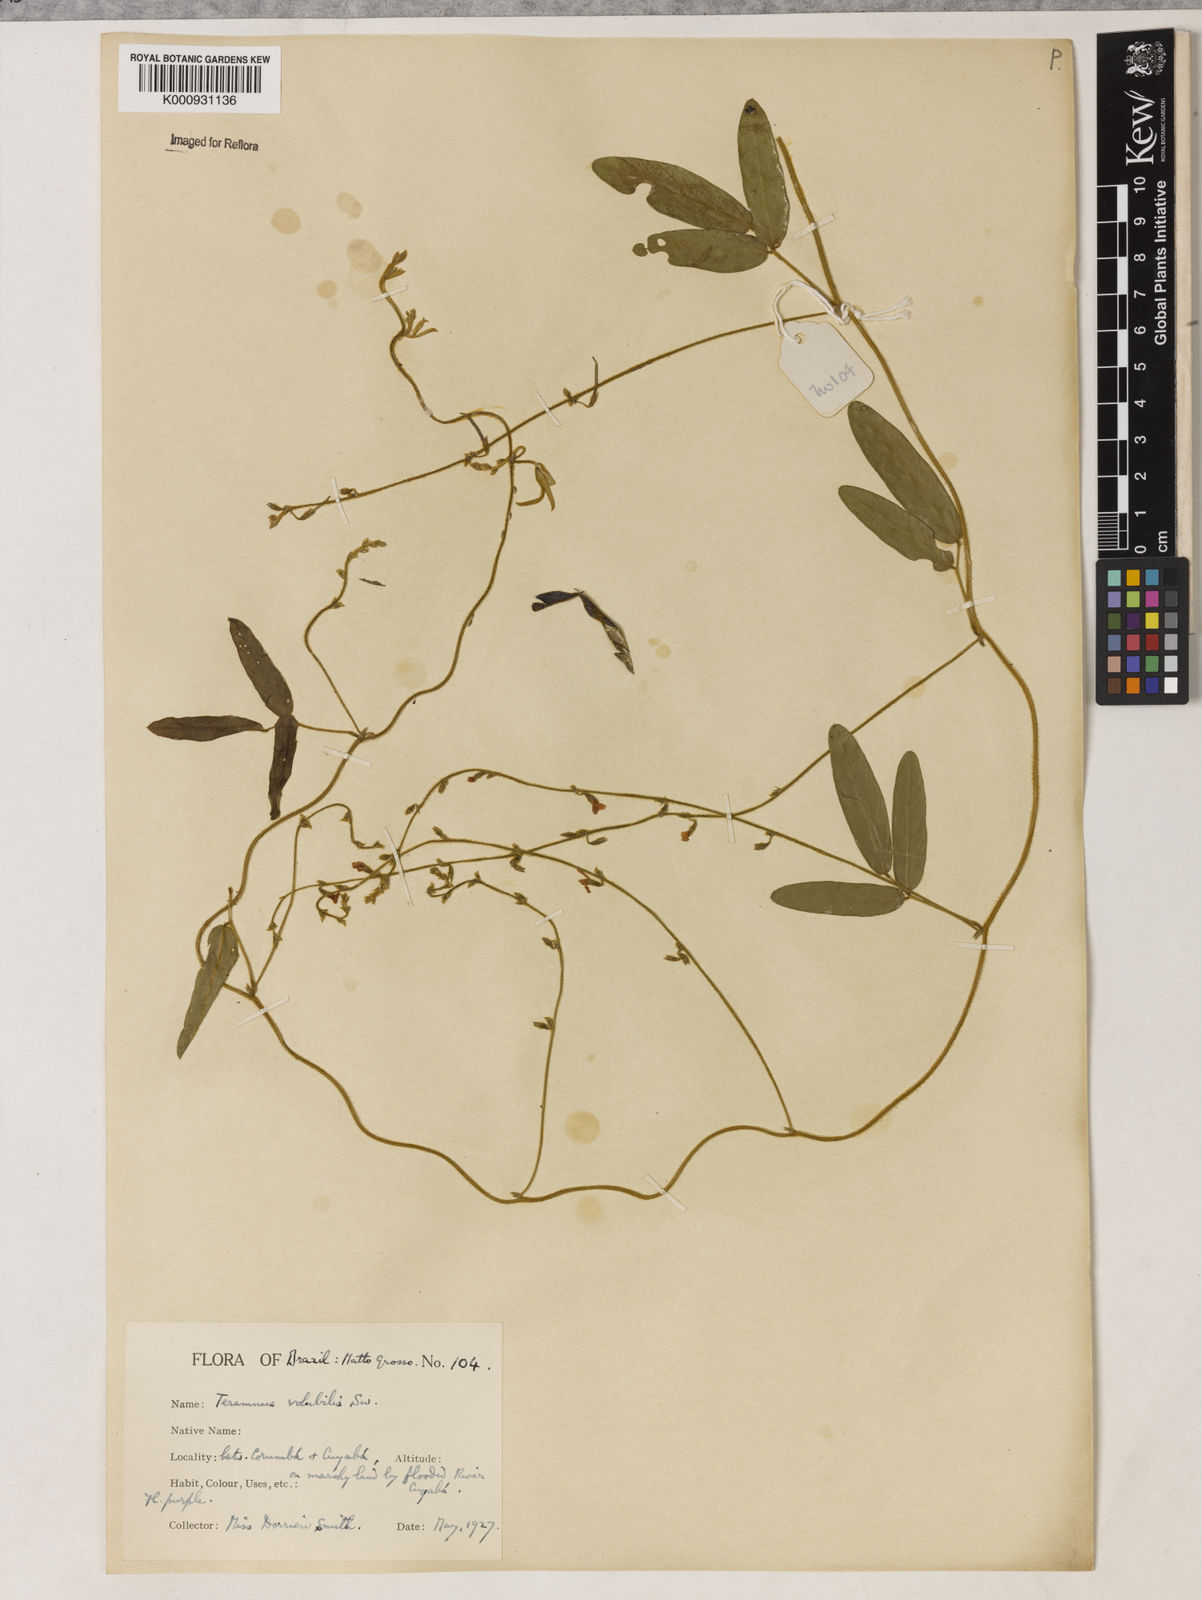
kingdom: Plantae
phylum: Tracheophyta
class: Magnoliopsida
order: Fabales
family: Fabaceae
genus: Teramnus
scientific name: Teramnus
